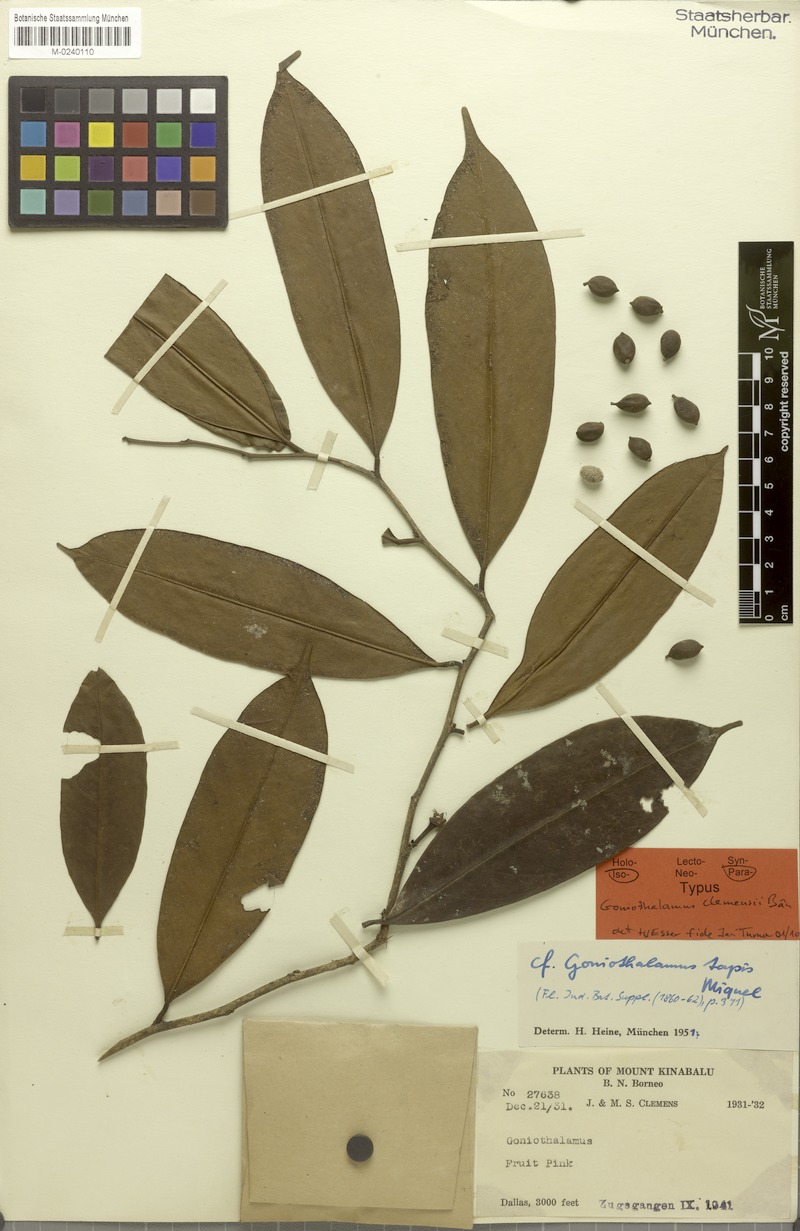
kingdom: Plantae
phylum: Tracheophyta
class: Magnoliopsida
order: Magnoliales
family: Annonaceae
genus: Goniothalamus
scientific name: Goniothalamus clemensii
